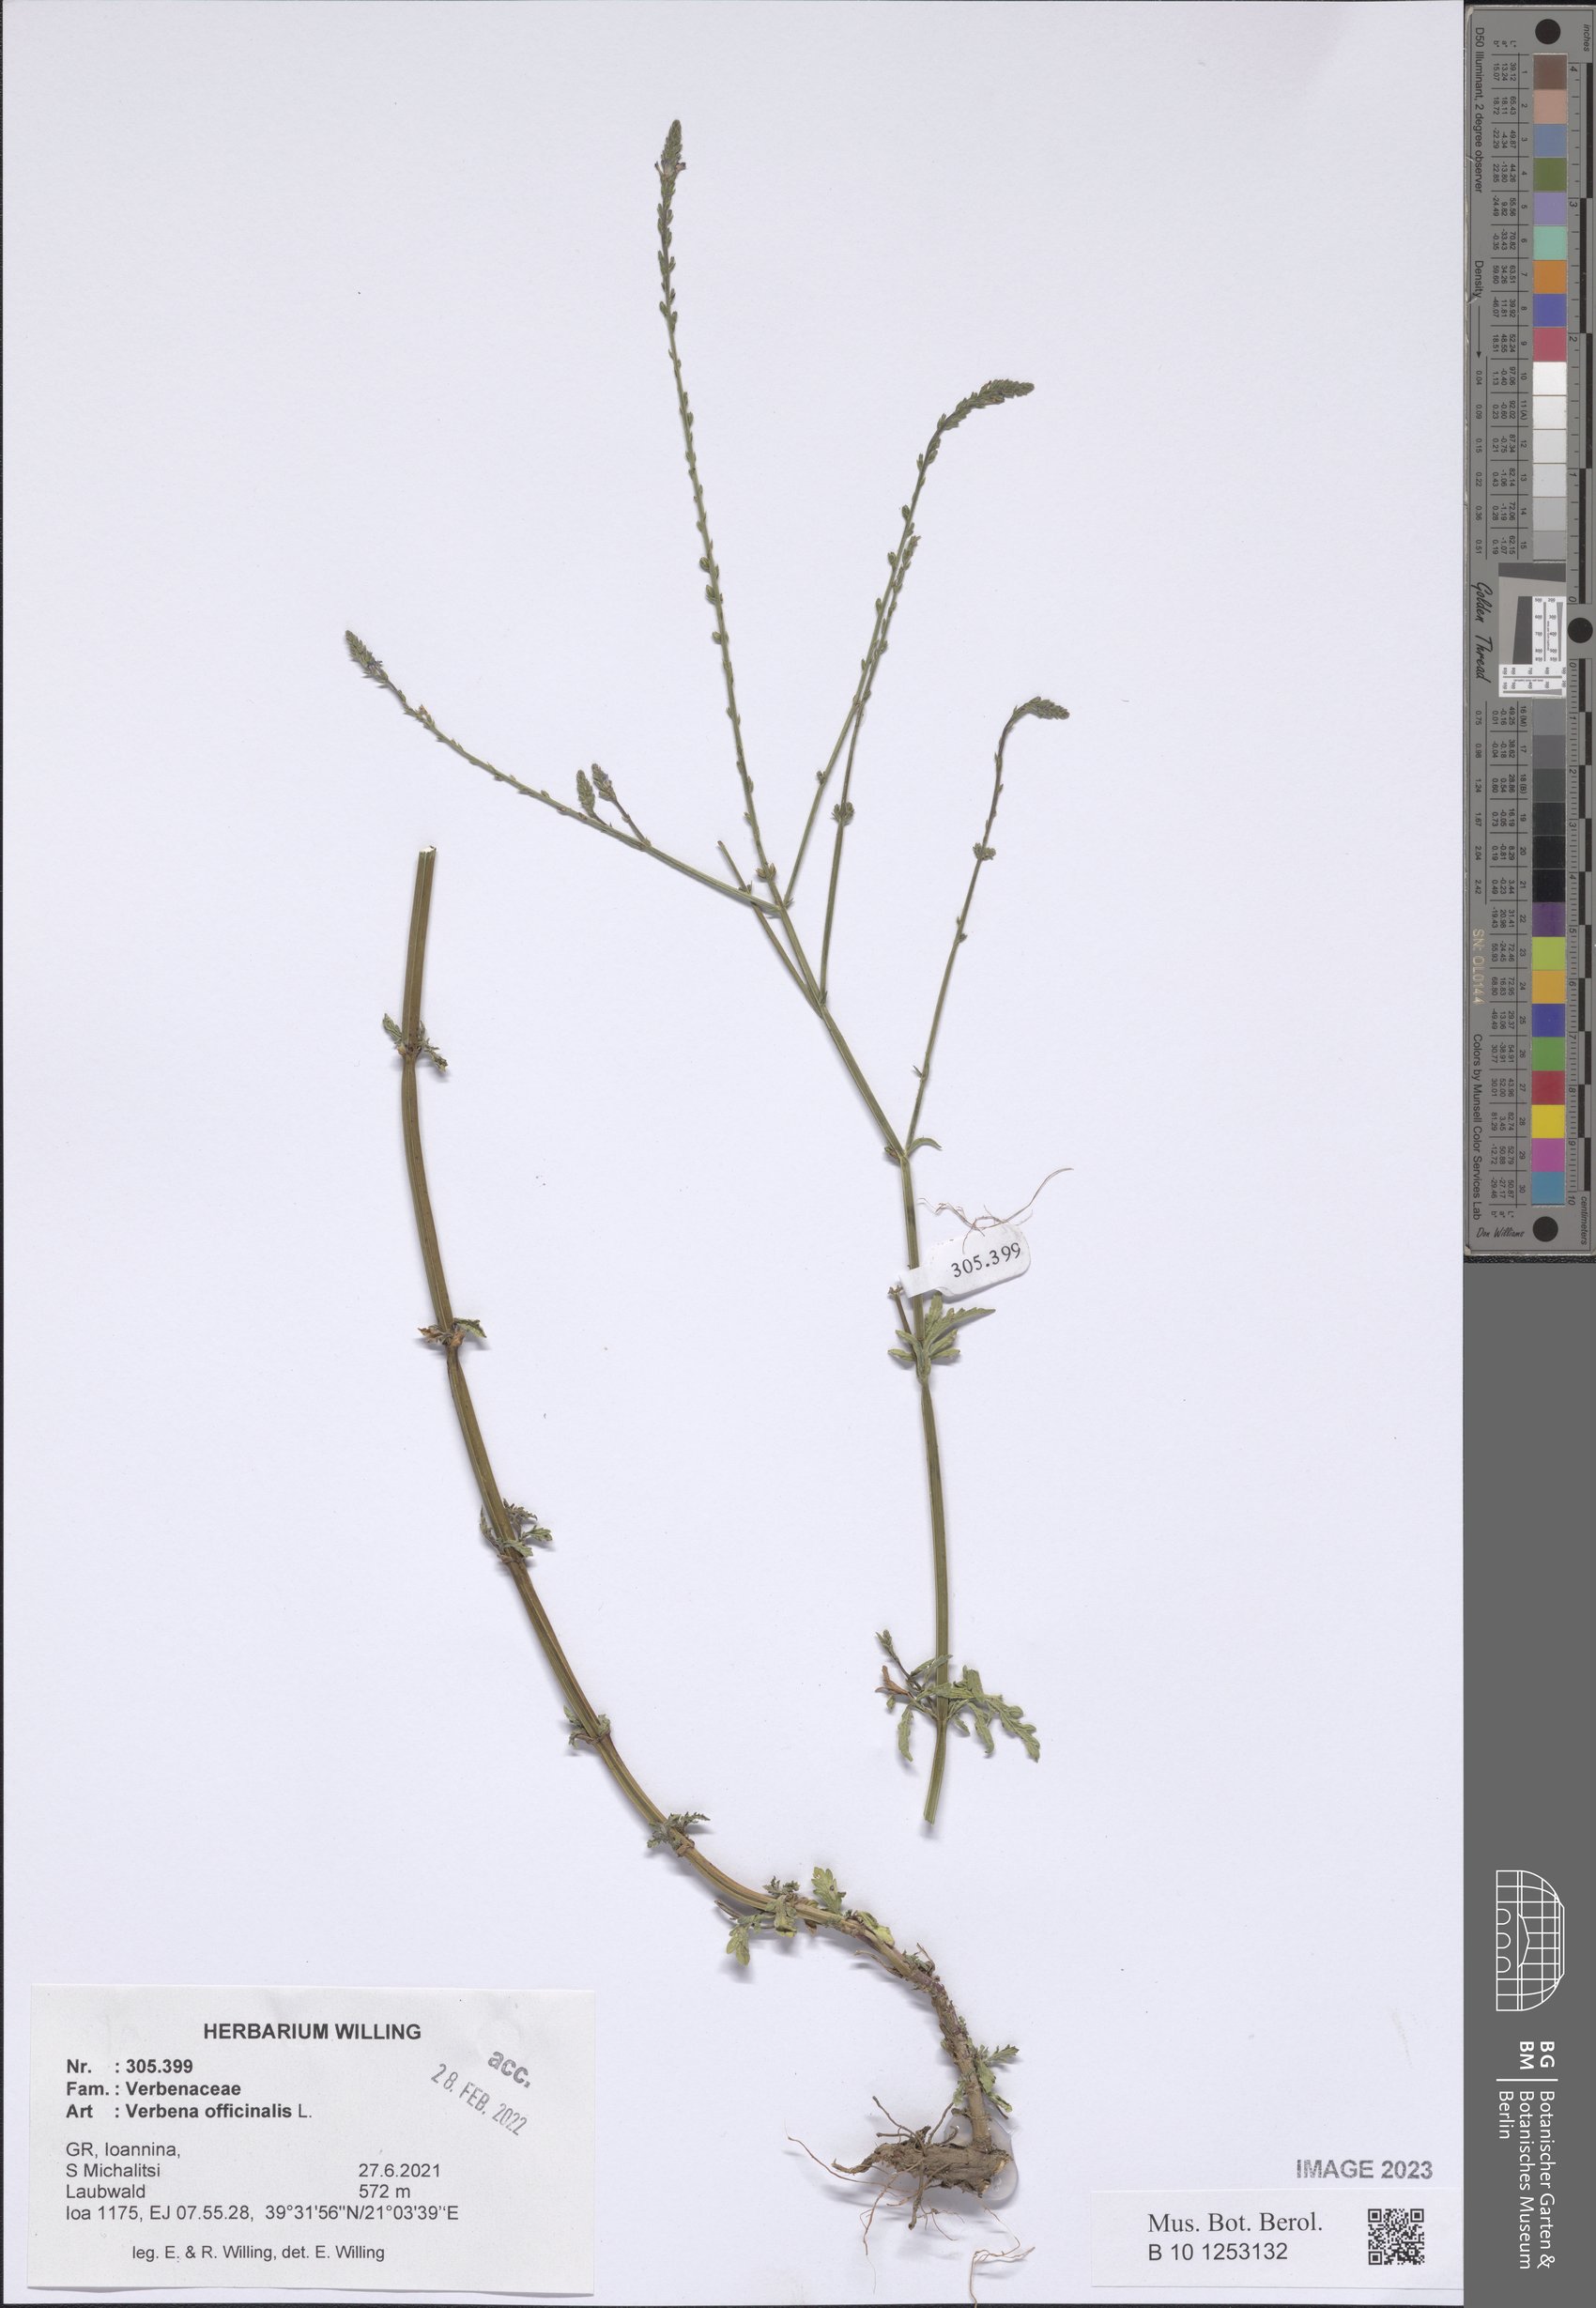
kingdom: Plantae
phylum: Tracheophyta
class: Magnoliopsida
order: Lamiales
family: Verbenaceae
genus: Verbena
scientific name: Verbena officinalis
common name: Vervain
